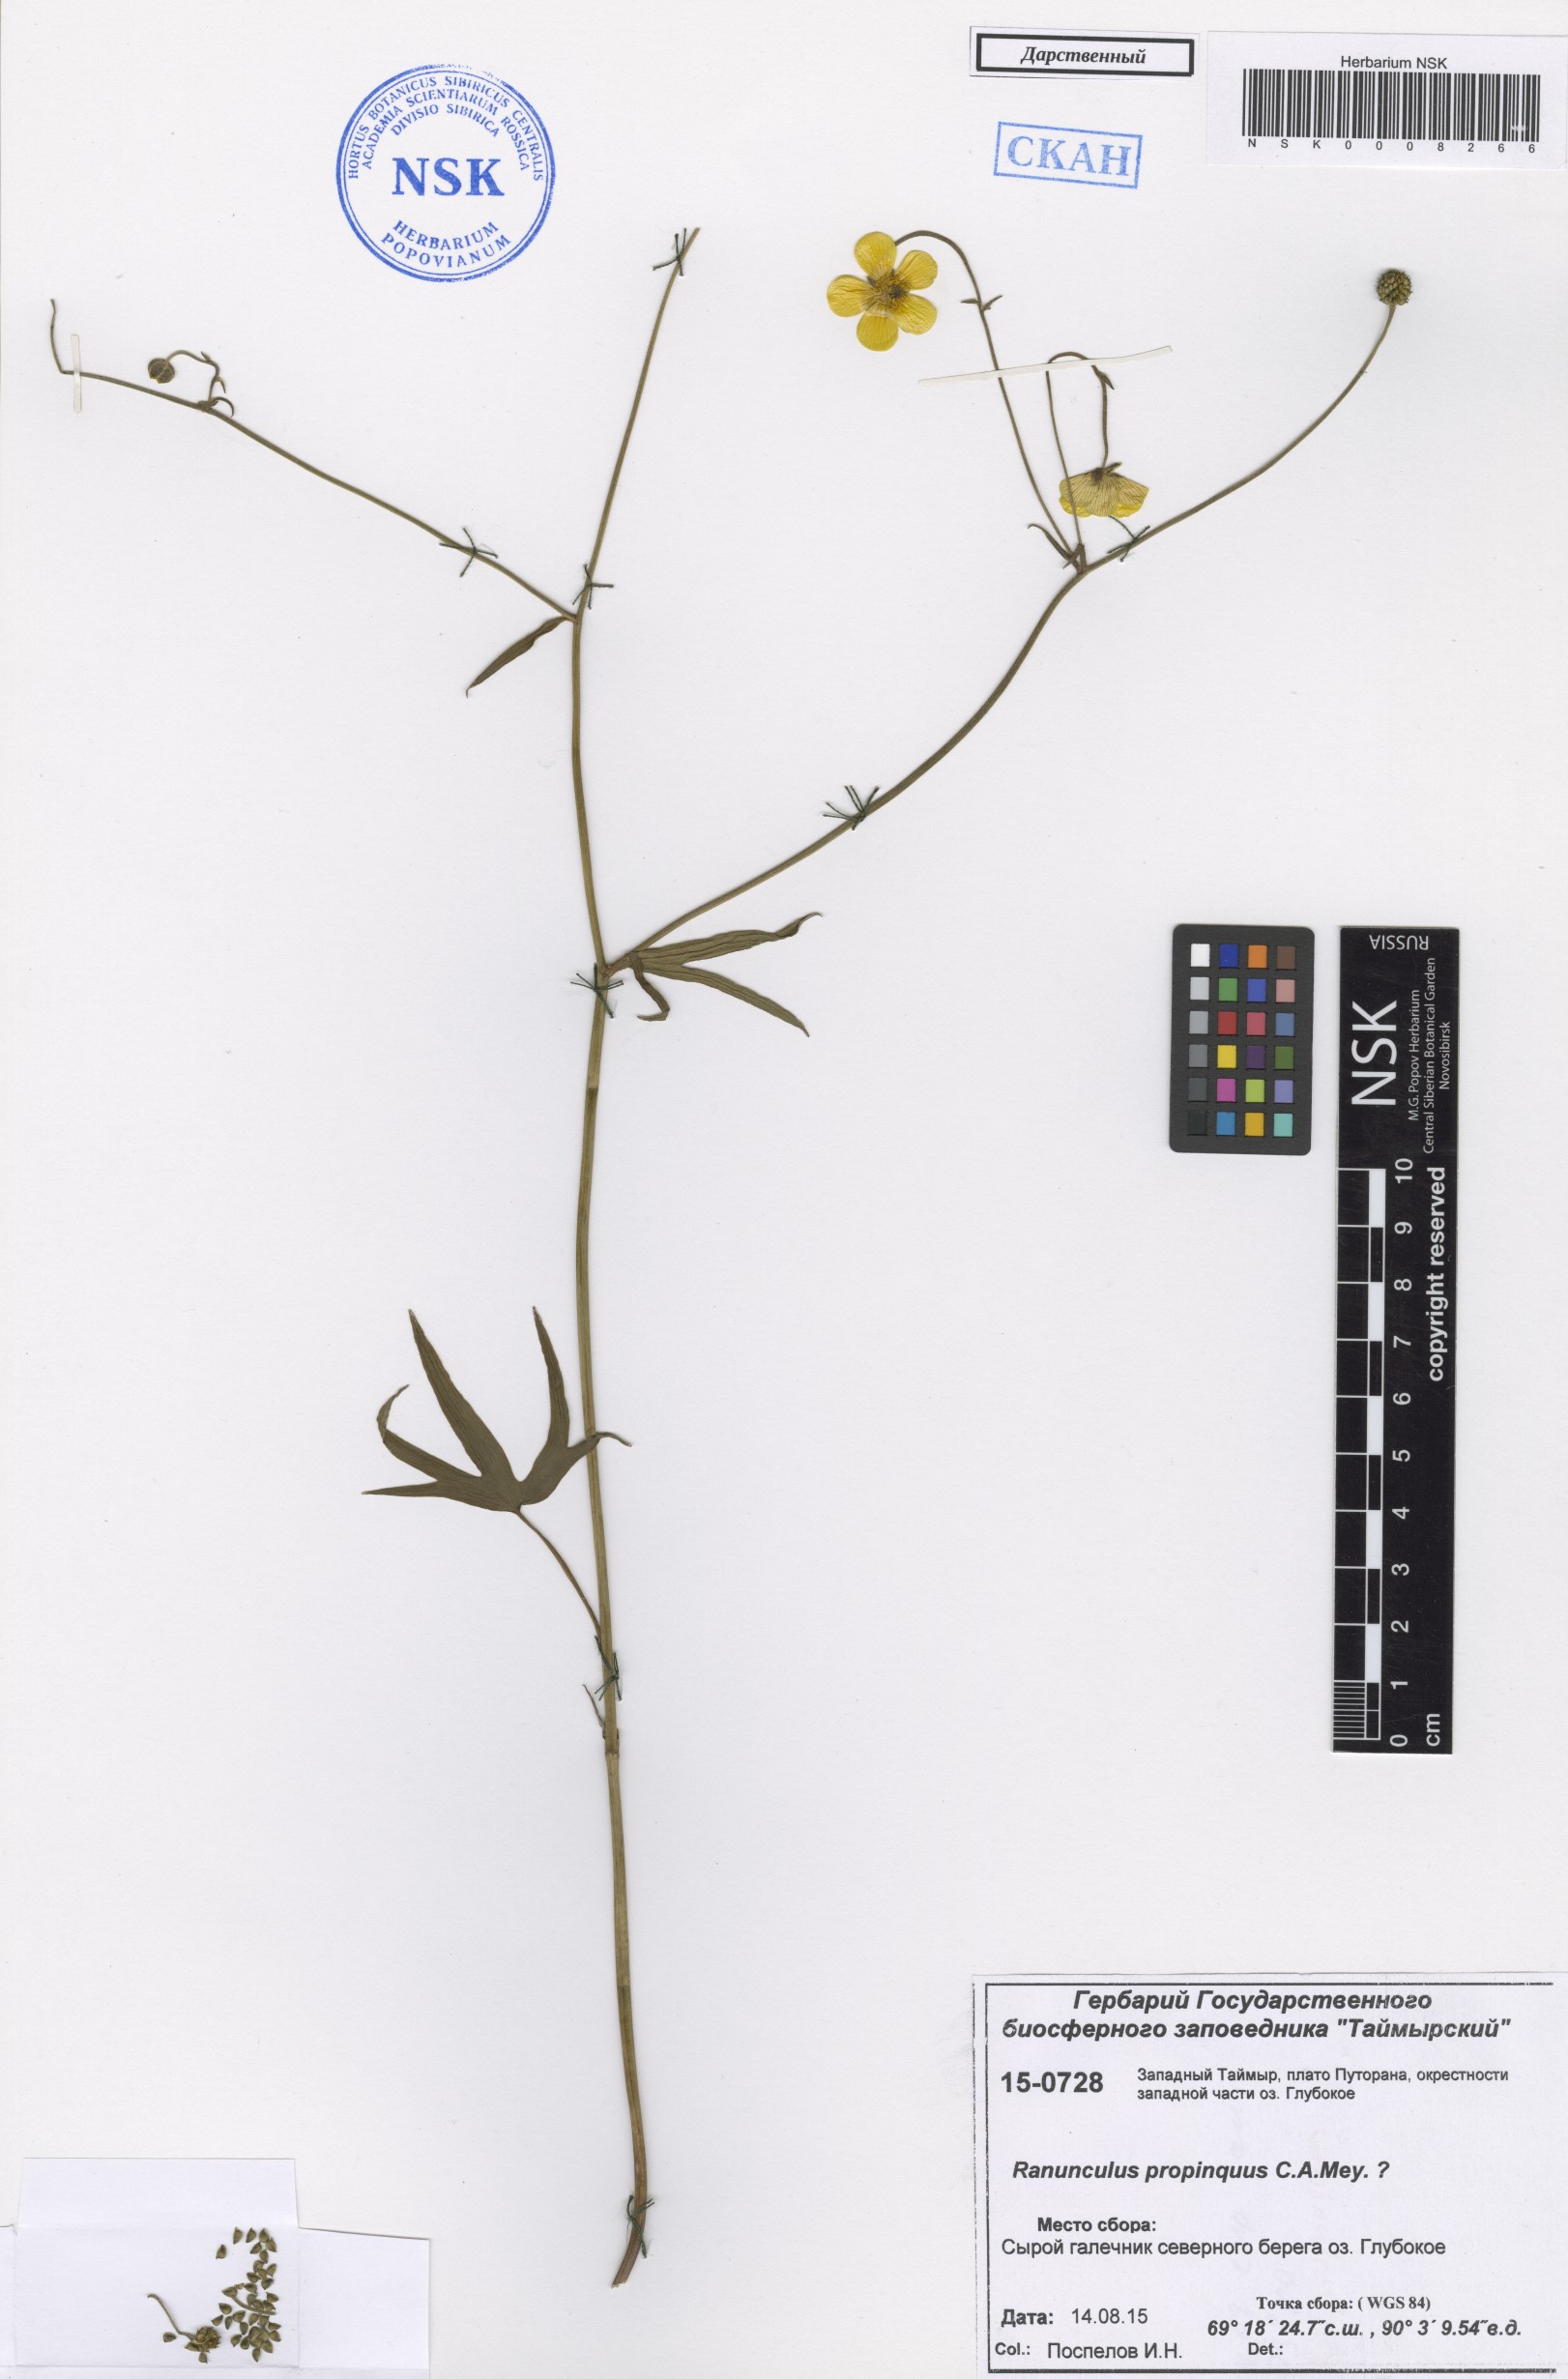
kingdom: Plantae
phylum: Tracheophyta
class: Magnoliopsida
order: Ranunculales
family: Ranunculaceae
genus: Ranunculus
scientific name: Ranunculus propinquus
